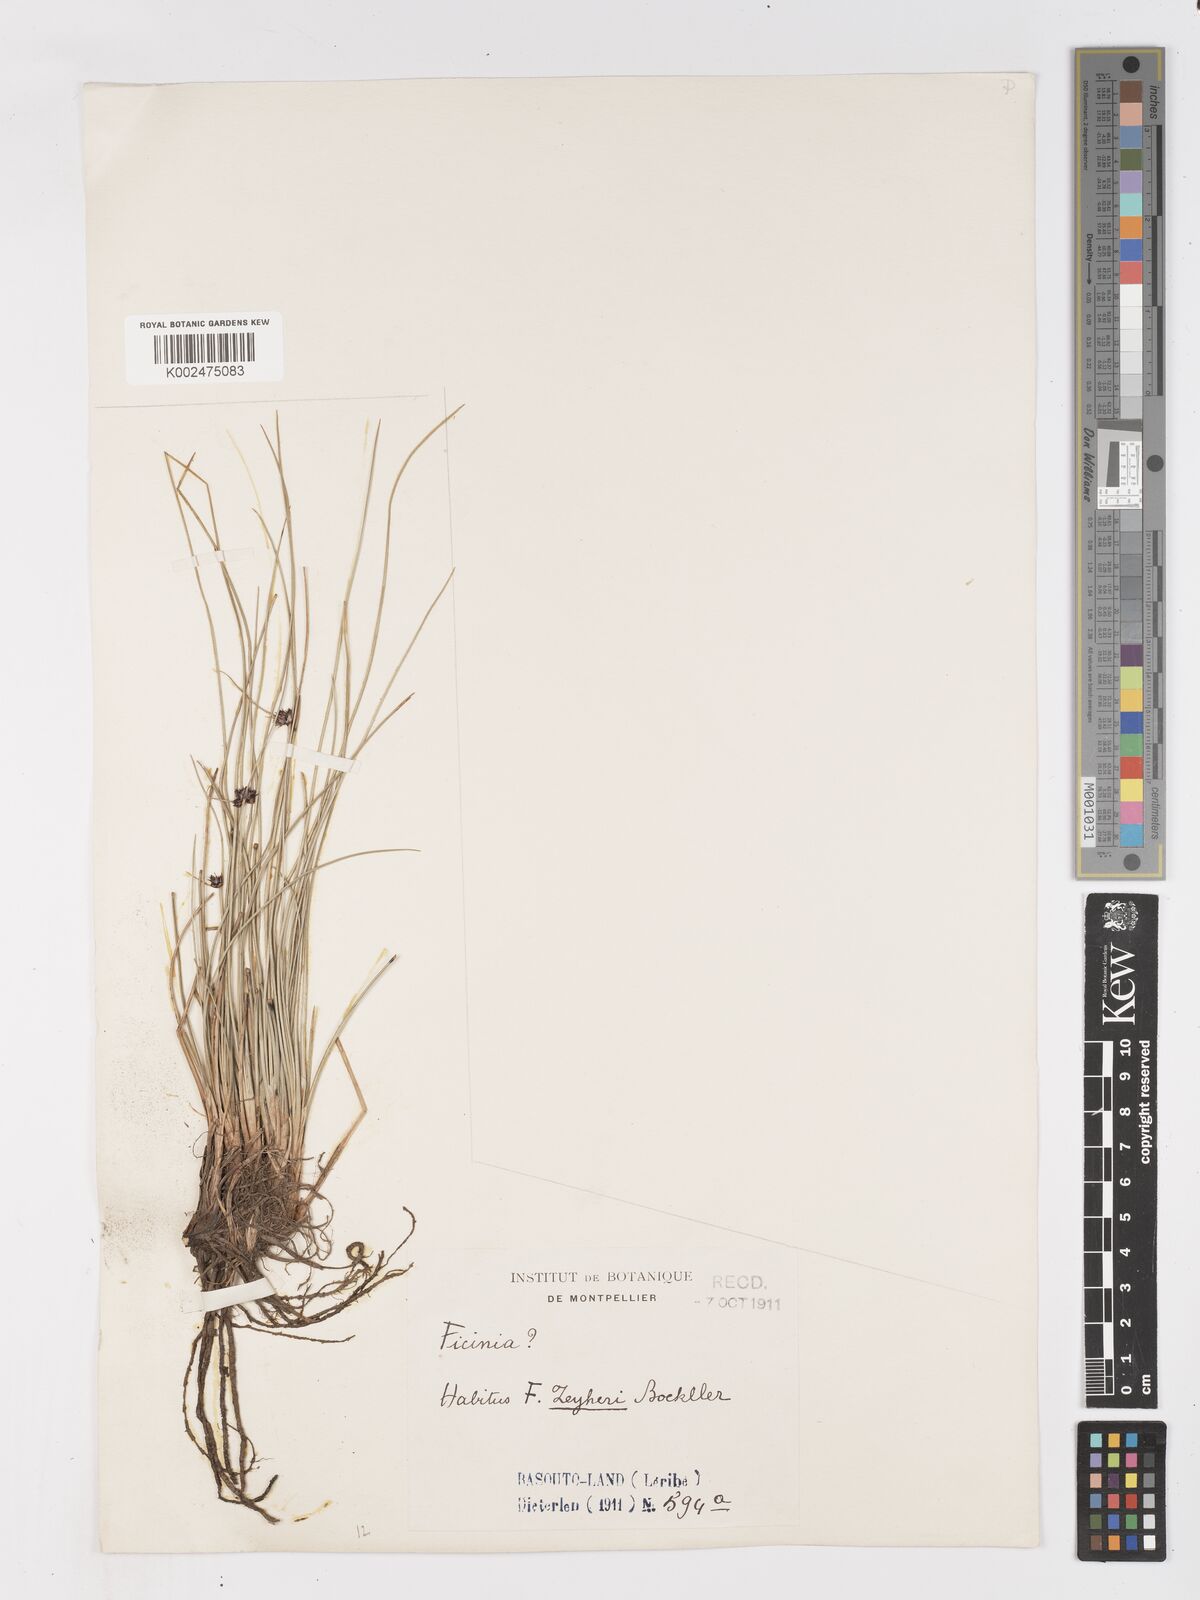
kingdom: Plantae
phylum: Tracheophyta
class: Liliopsida
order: Poales
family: Cyperaceae
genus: Ficinia
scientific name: Ficinia
